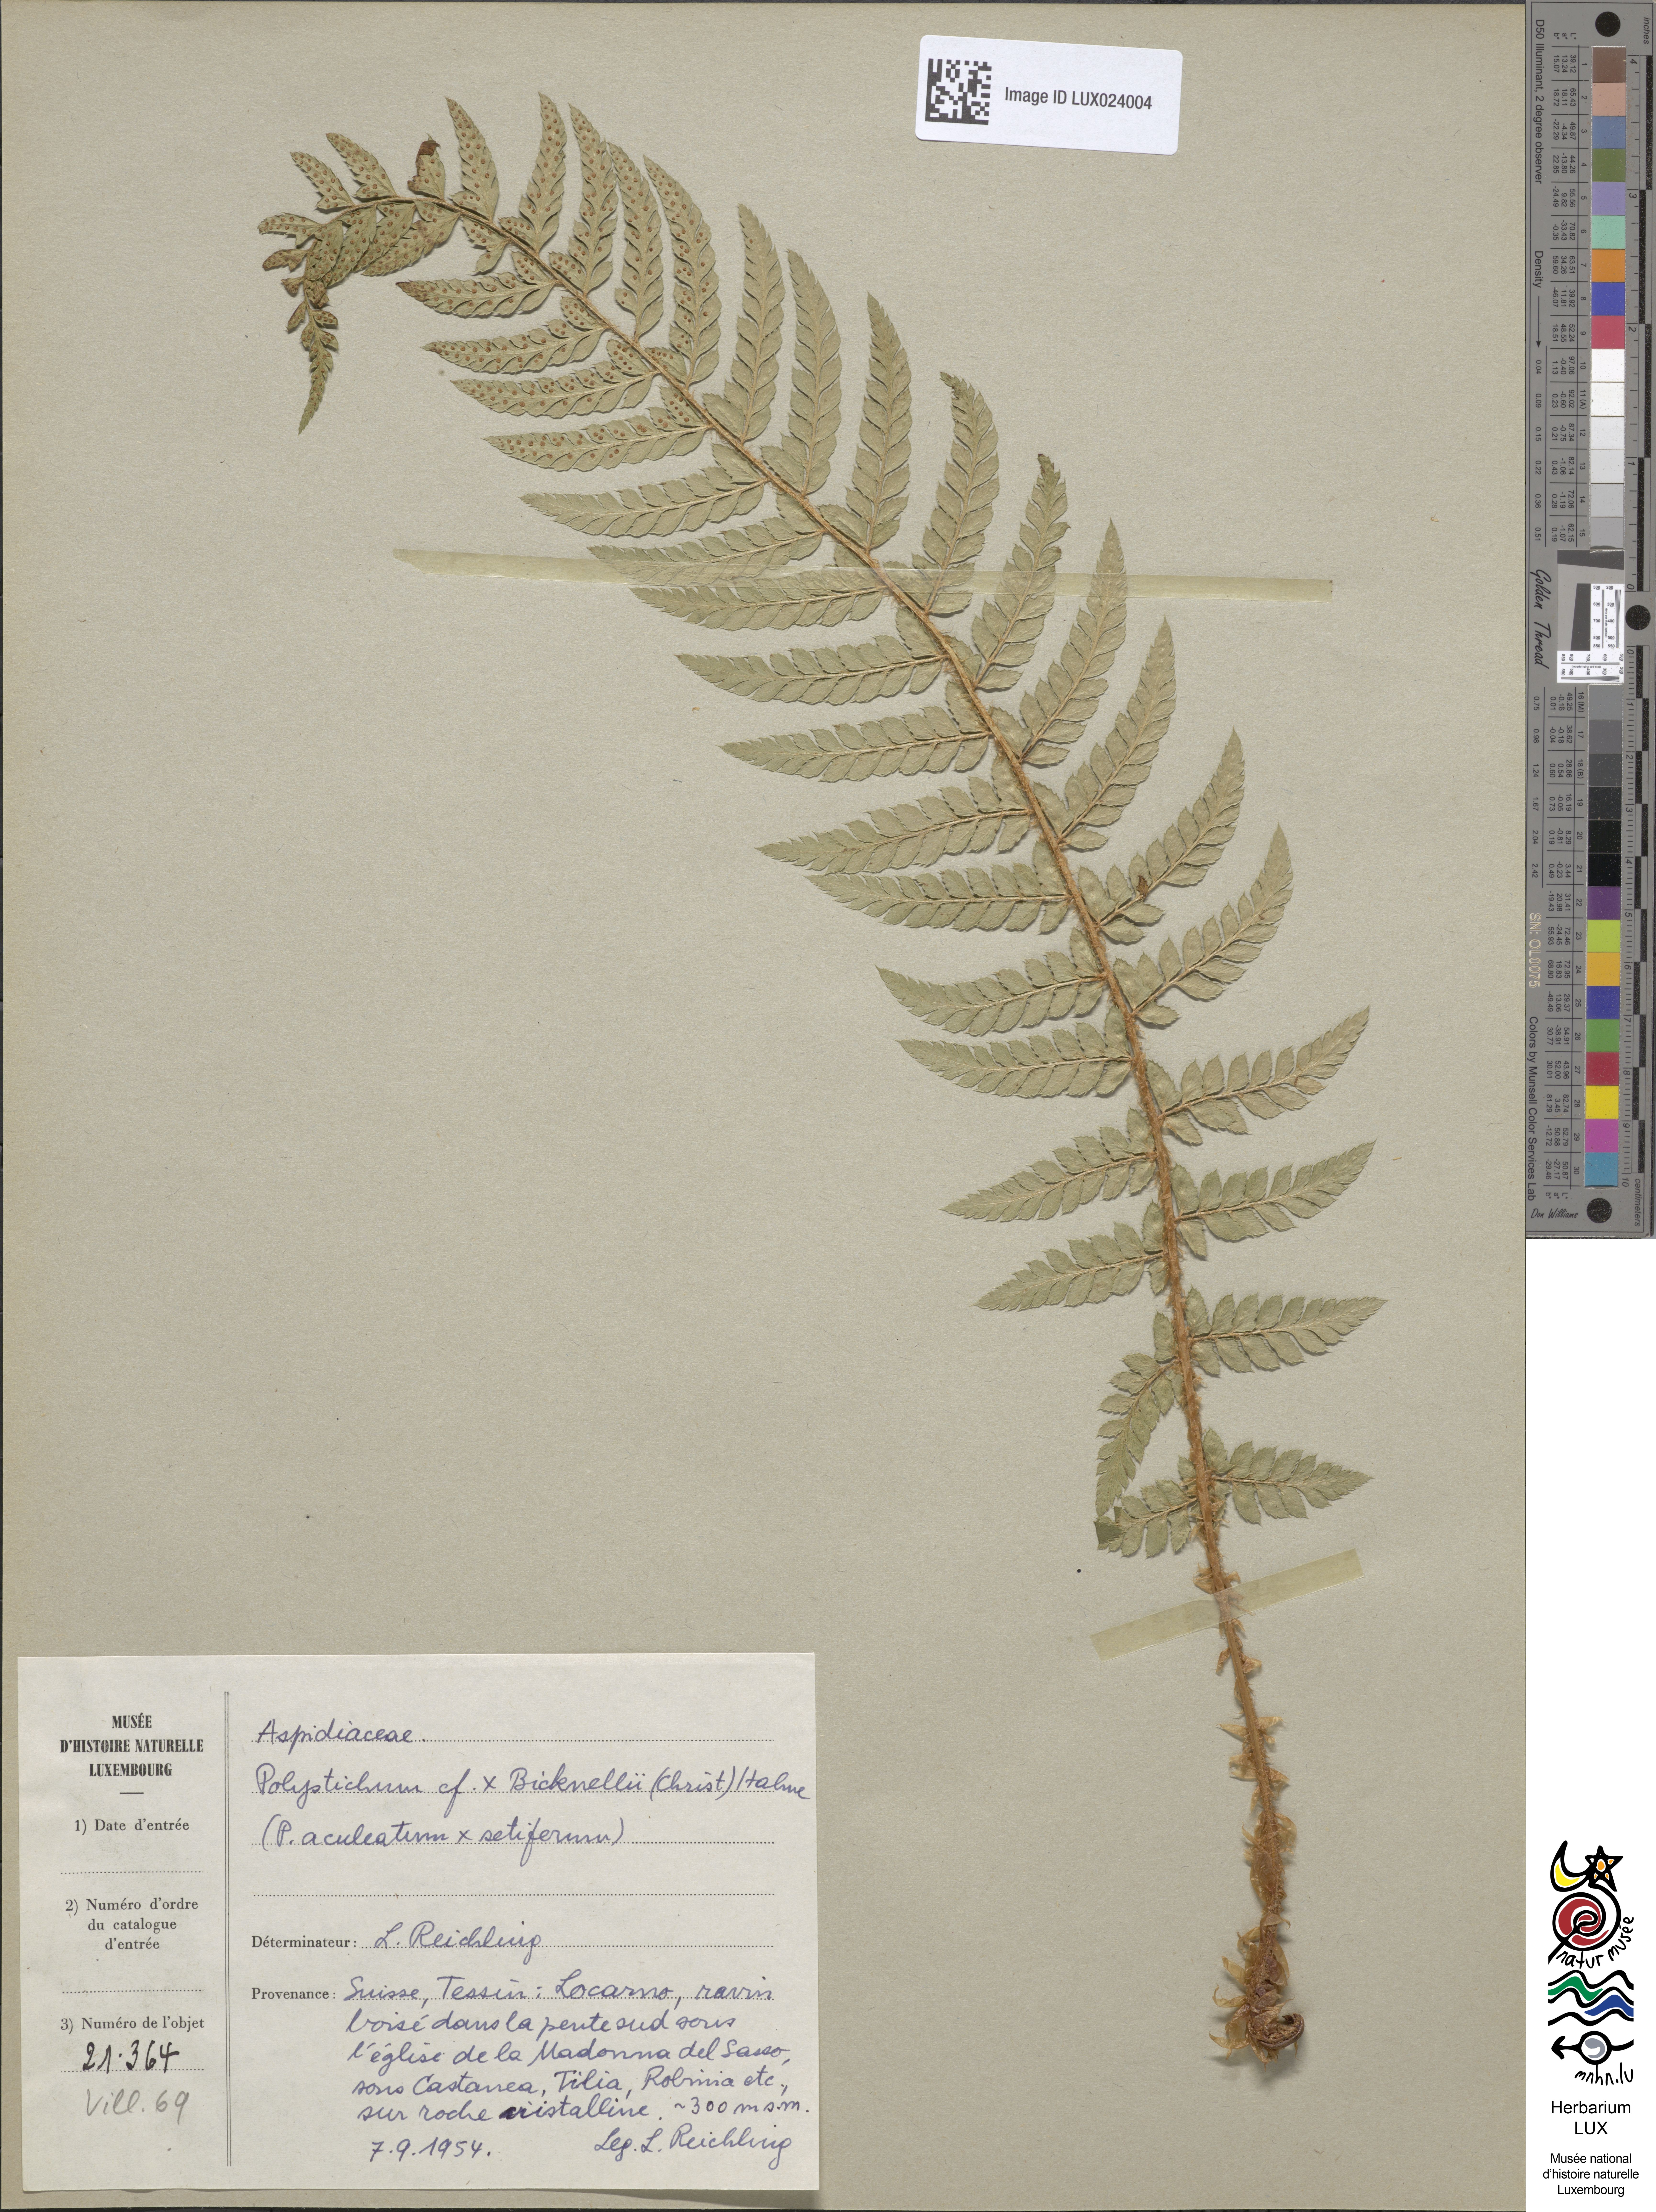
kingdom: Plantae
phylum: Tracheophyta
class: Polypodiopsida
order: Polypodiales
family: Dryopteridaceae
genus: Polystichum
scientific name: Polystichum
